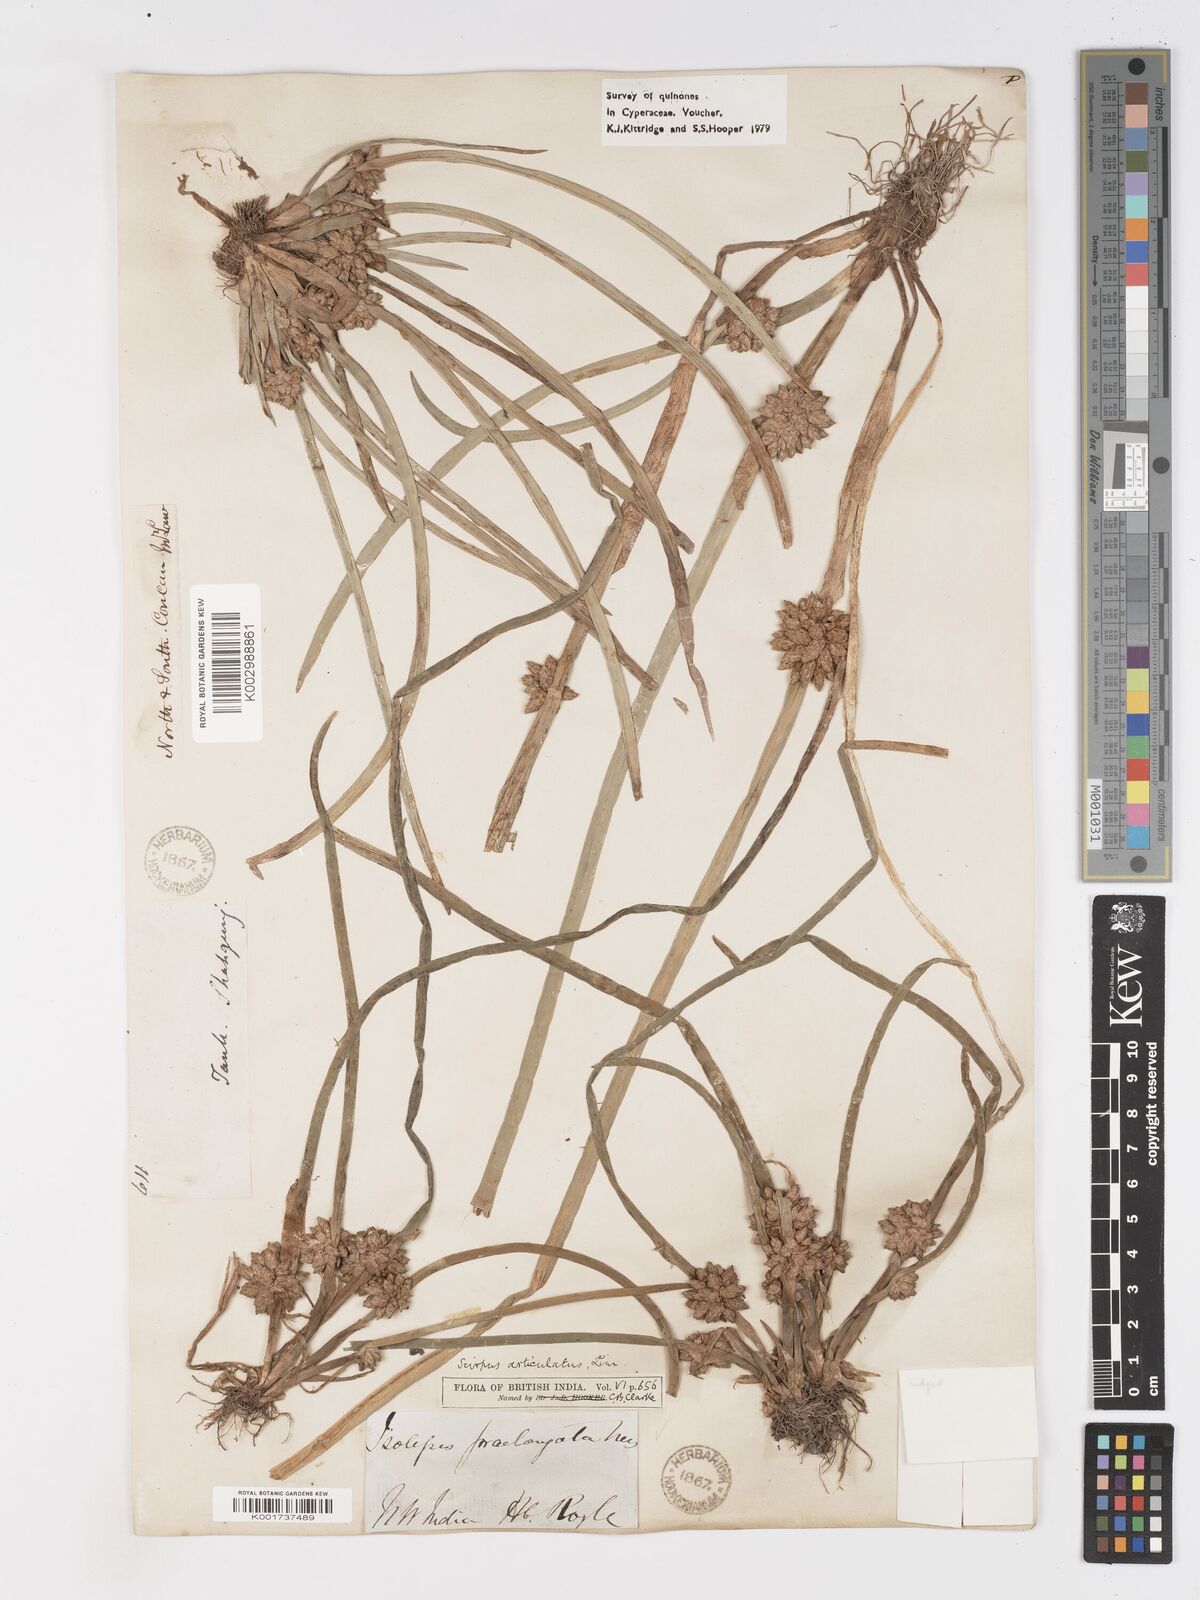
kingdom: Plantae
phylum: Tracheophyta
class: Liliopsida
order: Poales
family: Cyperaceae
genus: Schoenoplectiella
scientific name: Schoenoplectiella praelongata
